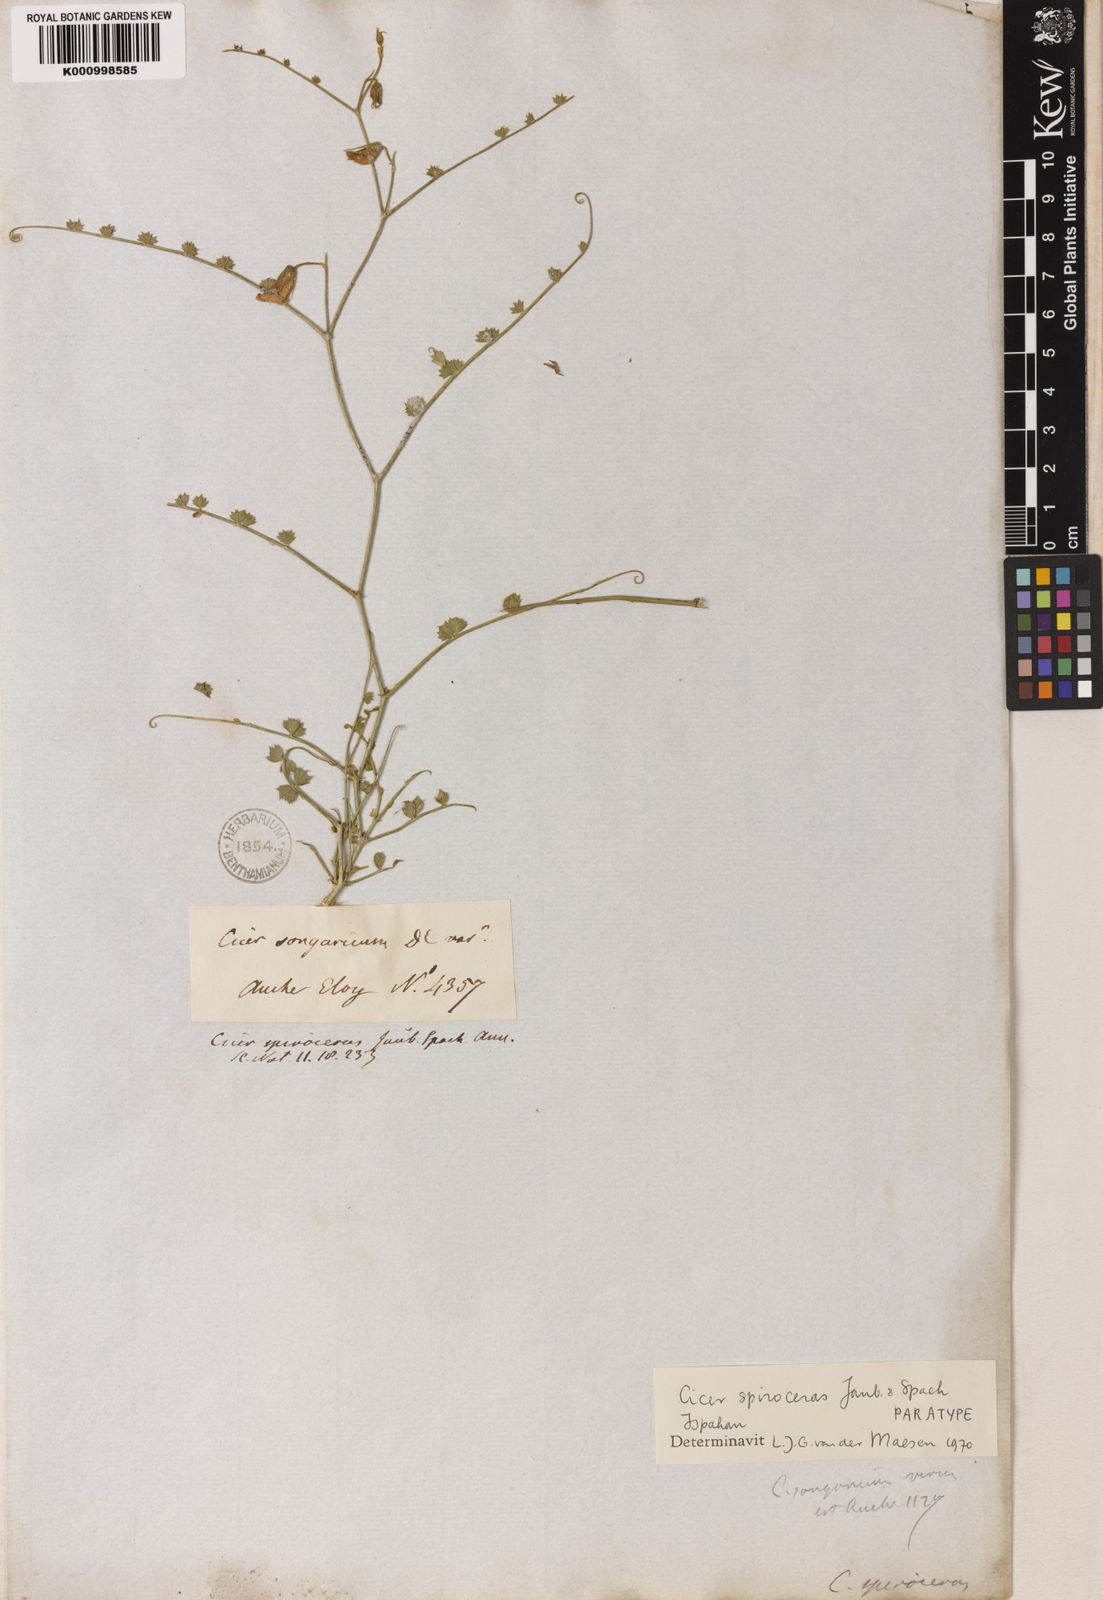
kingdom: Plantae
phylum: Tracheophyta
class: Magnoliopsida
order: Fabales
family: Fabaceae
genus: Cicer
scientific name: Cicer spiroceras
